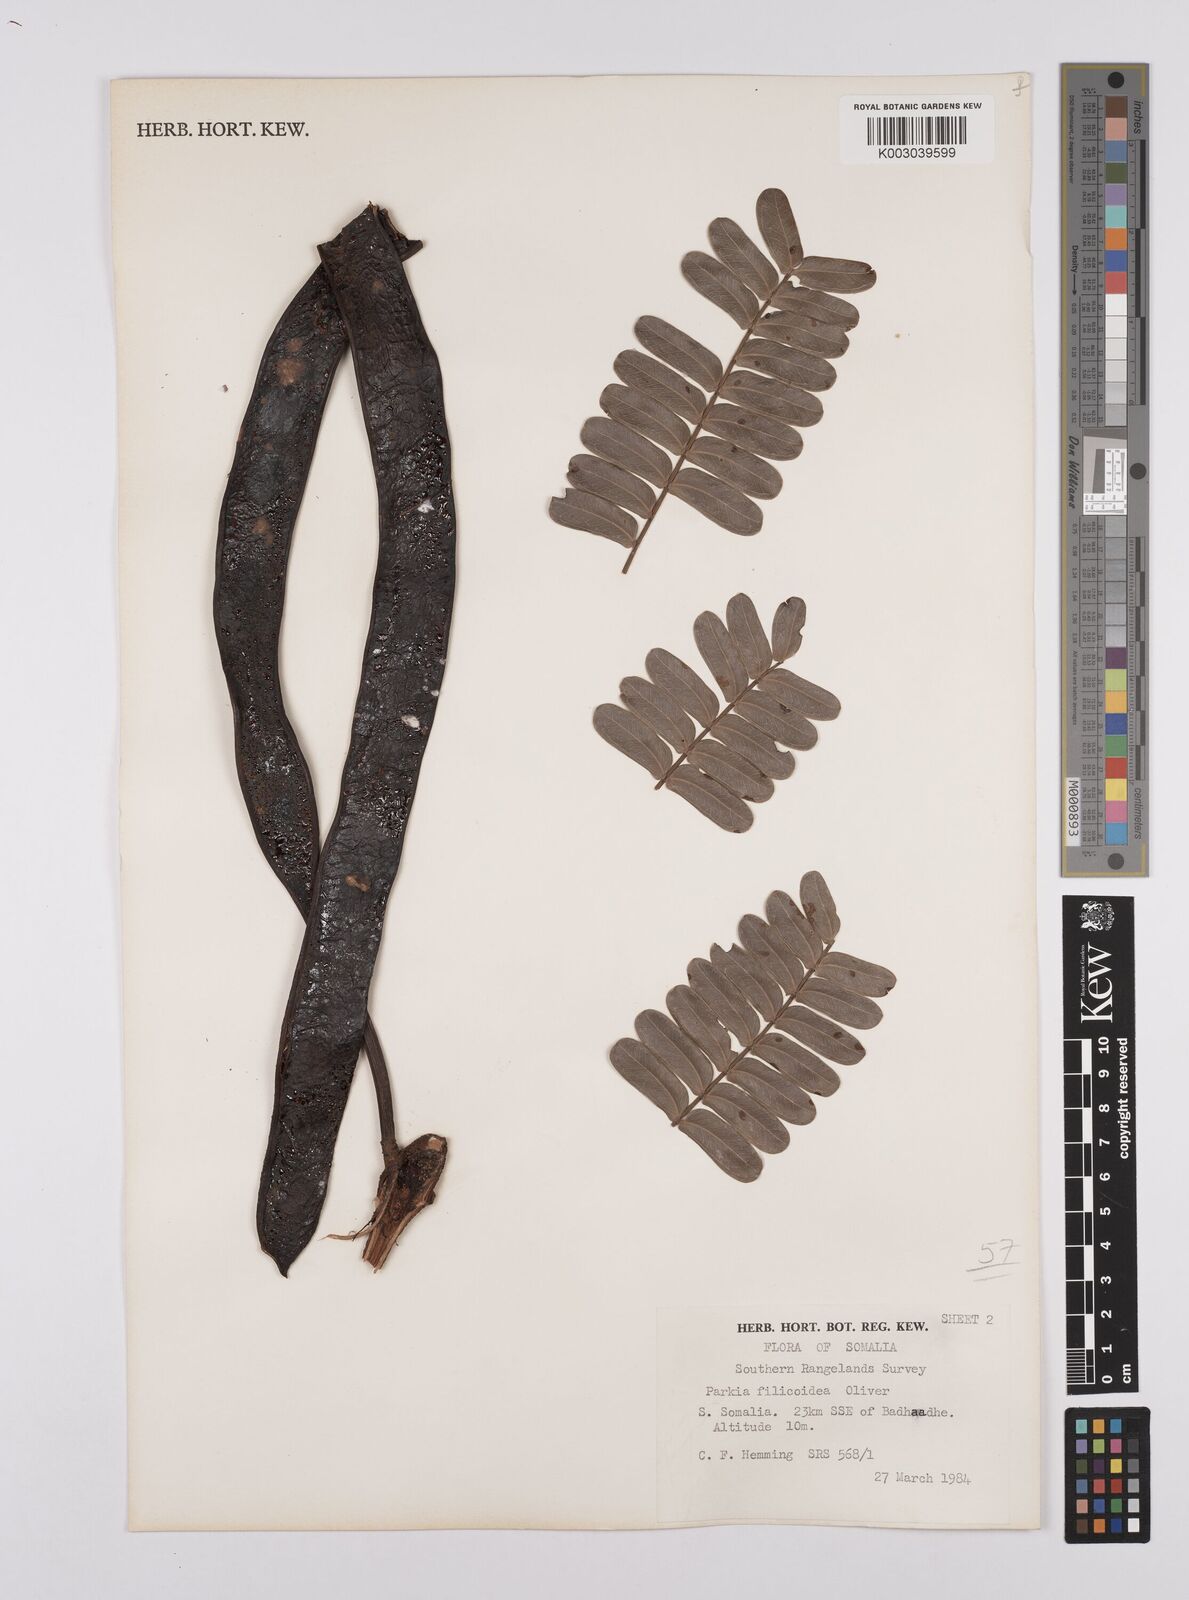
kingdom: Plantae
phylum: Tracheophyta
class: Magnoliopsida
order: Fabales
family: Fabaceae
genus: Parkia
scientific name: Parkia filicoidea
